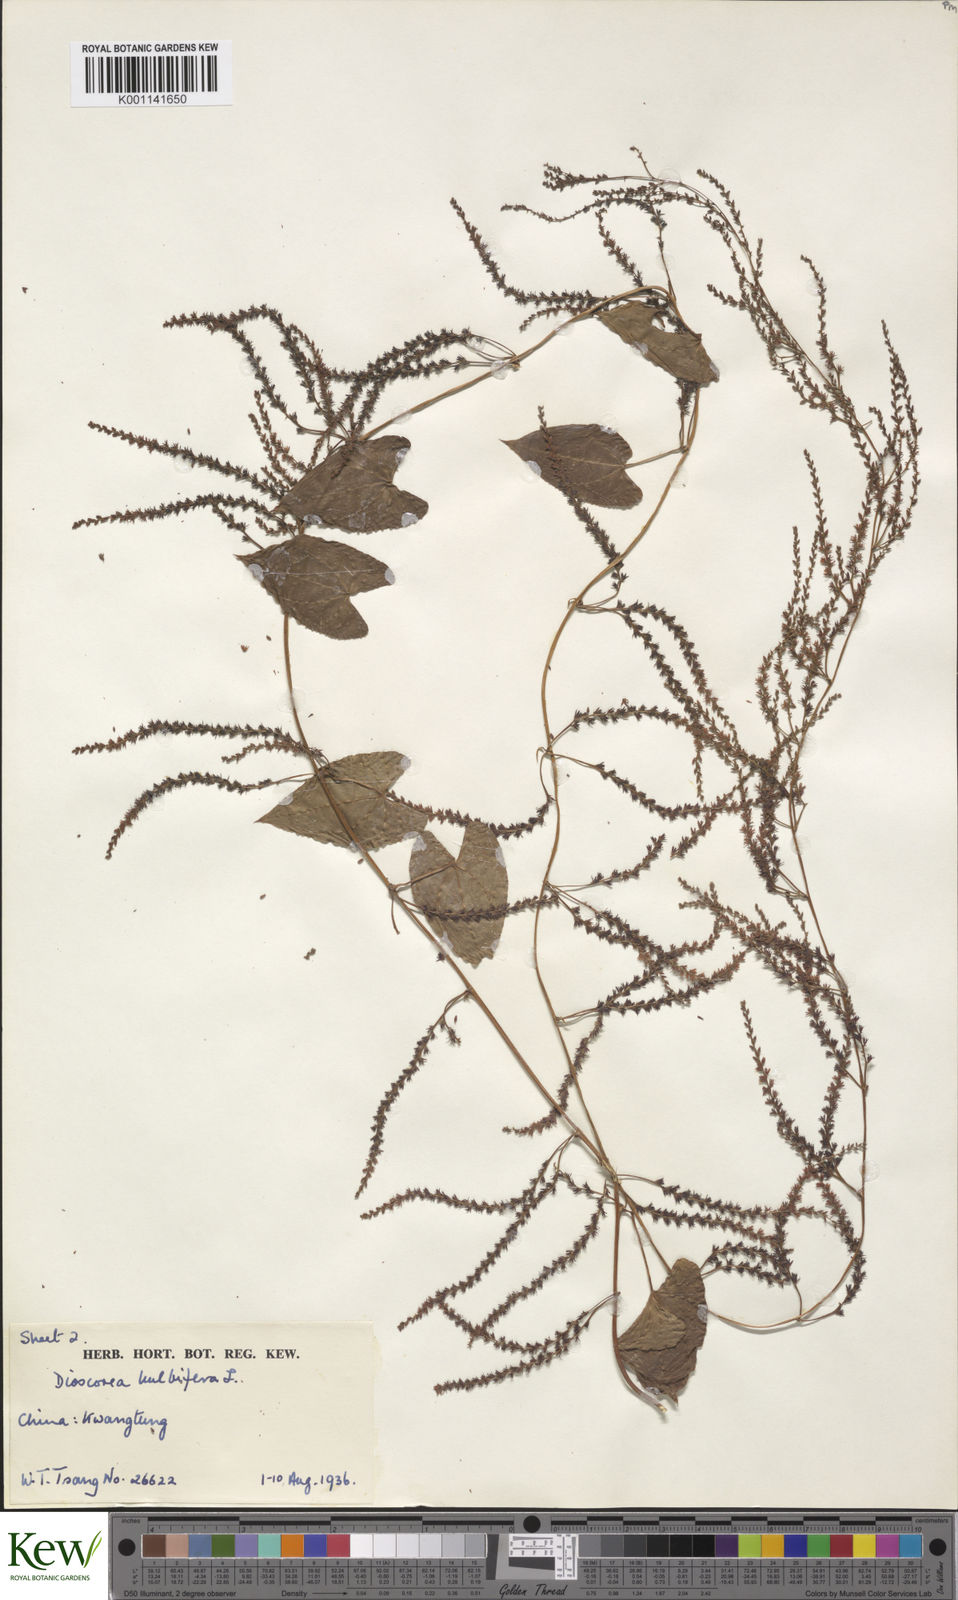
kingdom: Plantae
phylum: Tracheophyta
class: Liliopsida
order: Dioscoreales
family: Dioscoreaceae
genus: Dioscorea
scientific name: Dioscorea bulbifera
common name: Air yam
